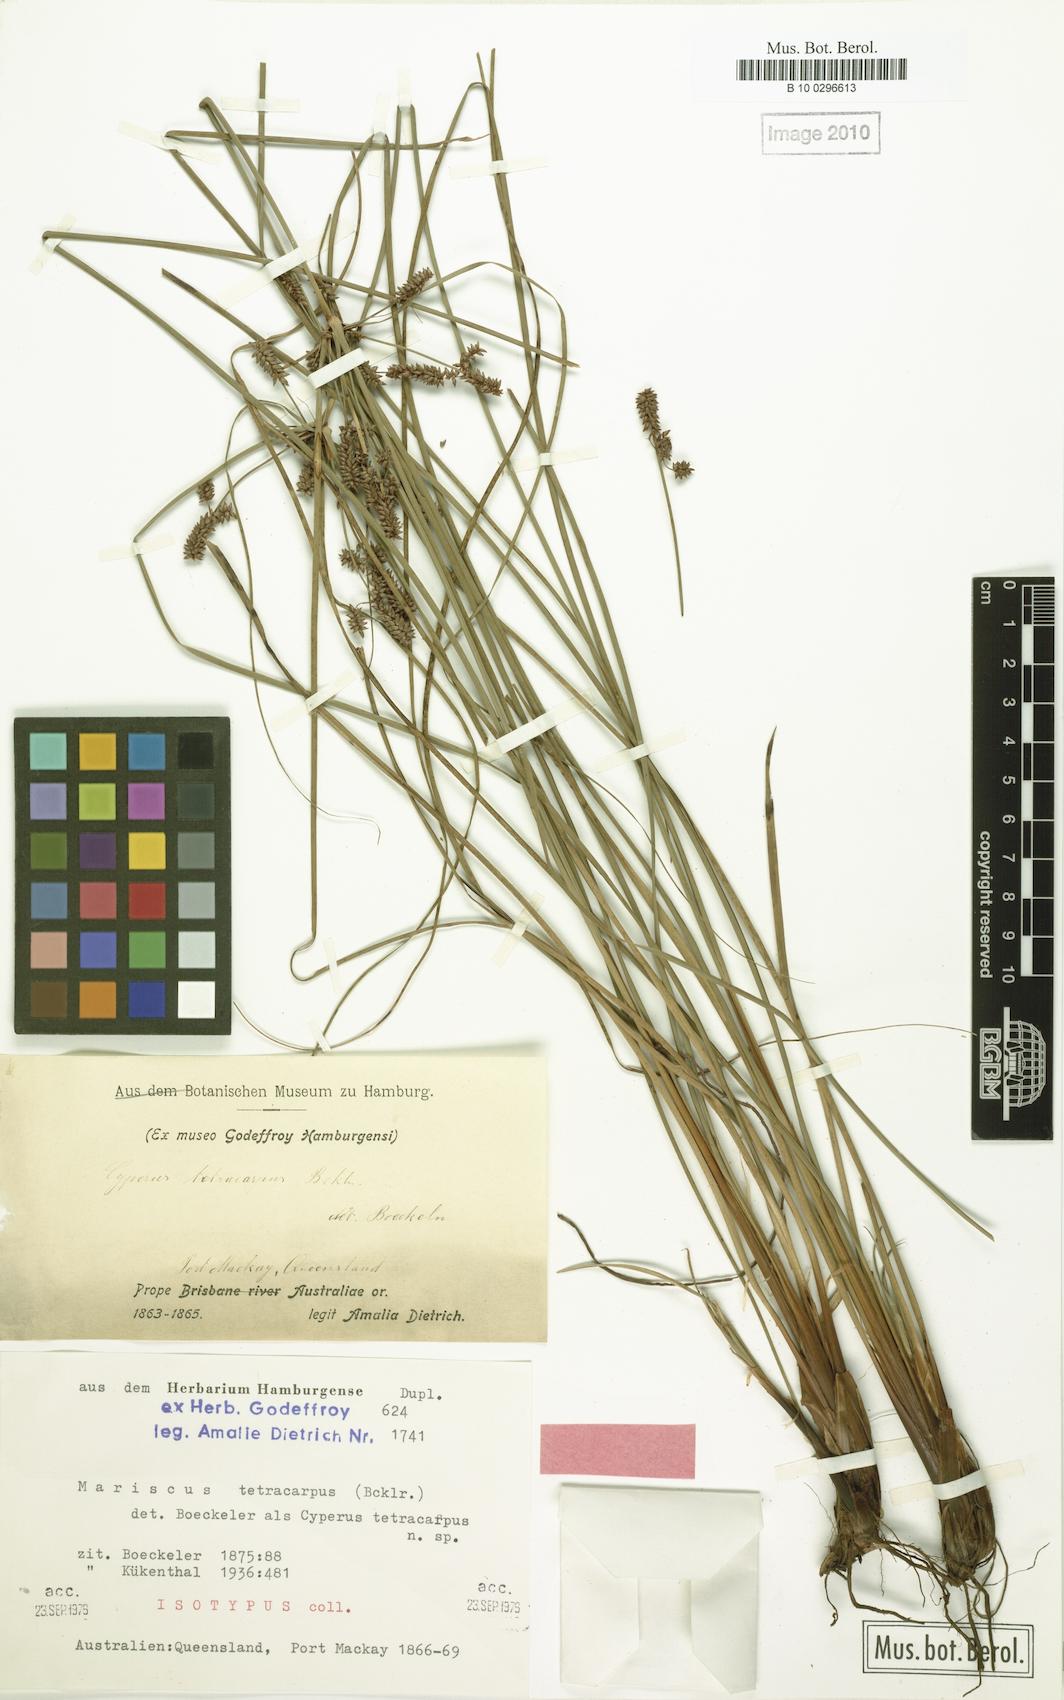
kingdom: Plantae
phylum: Tracheophyta
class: Liliopsida
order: Poales
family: Cyperaceae
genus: Cyperus
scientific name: Cyperus tetracarpus
